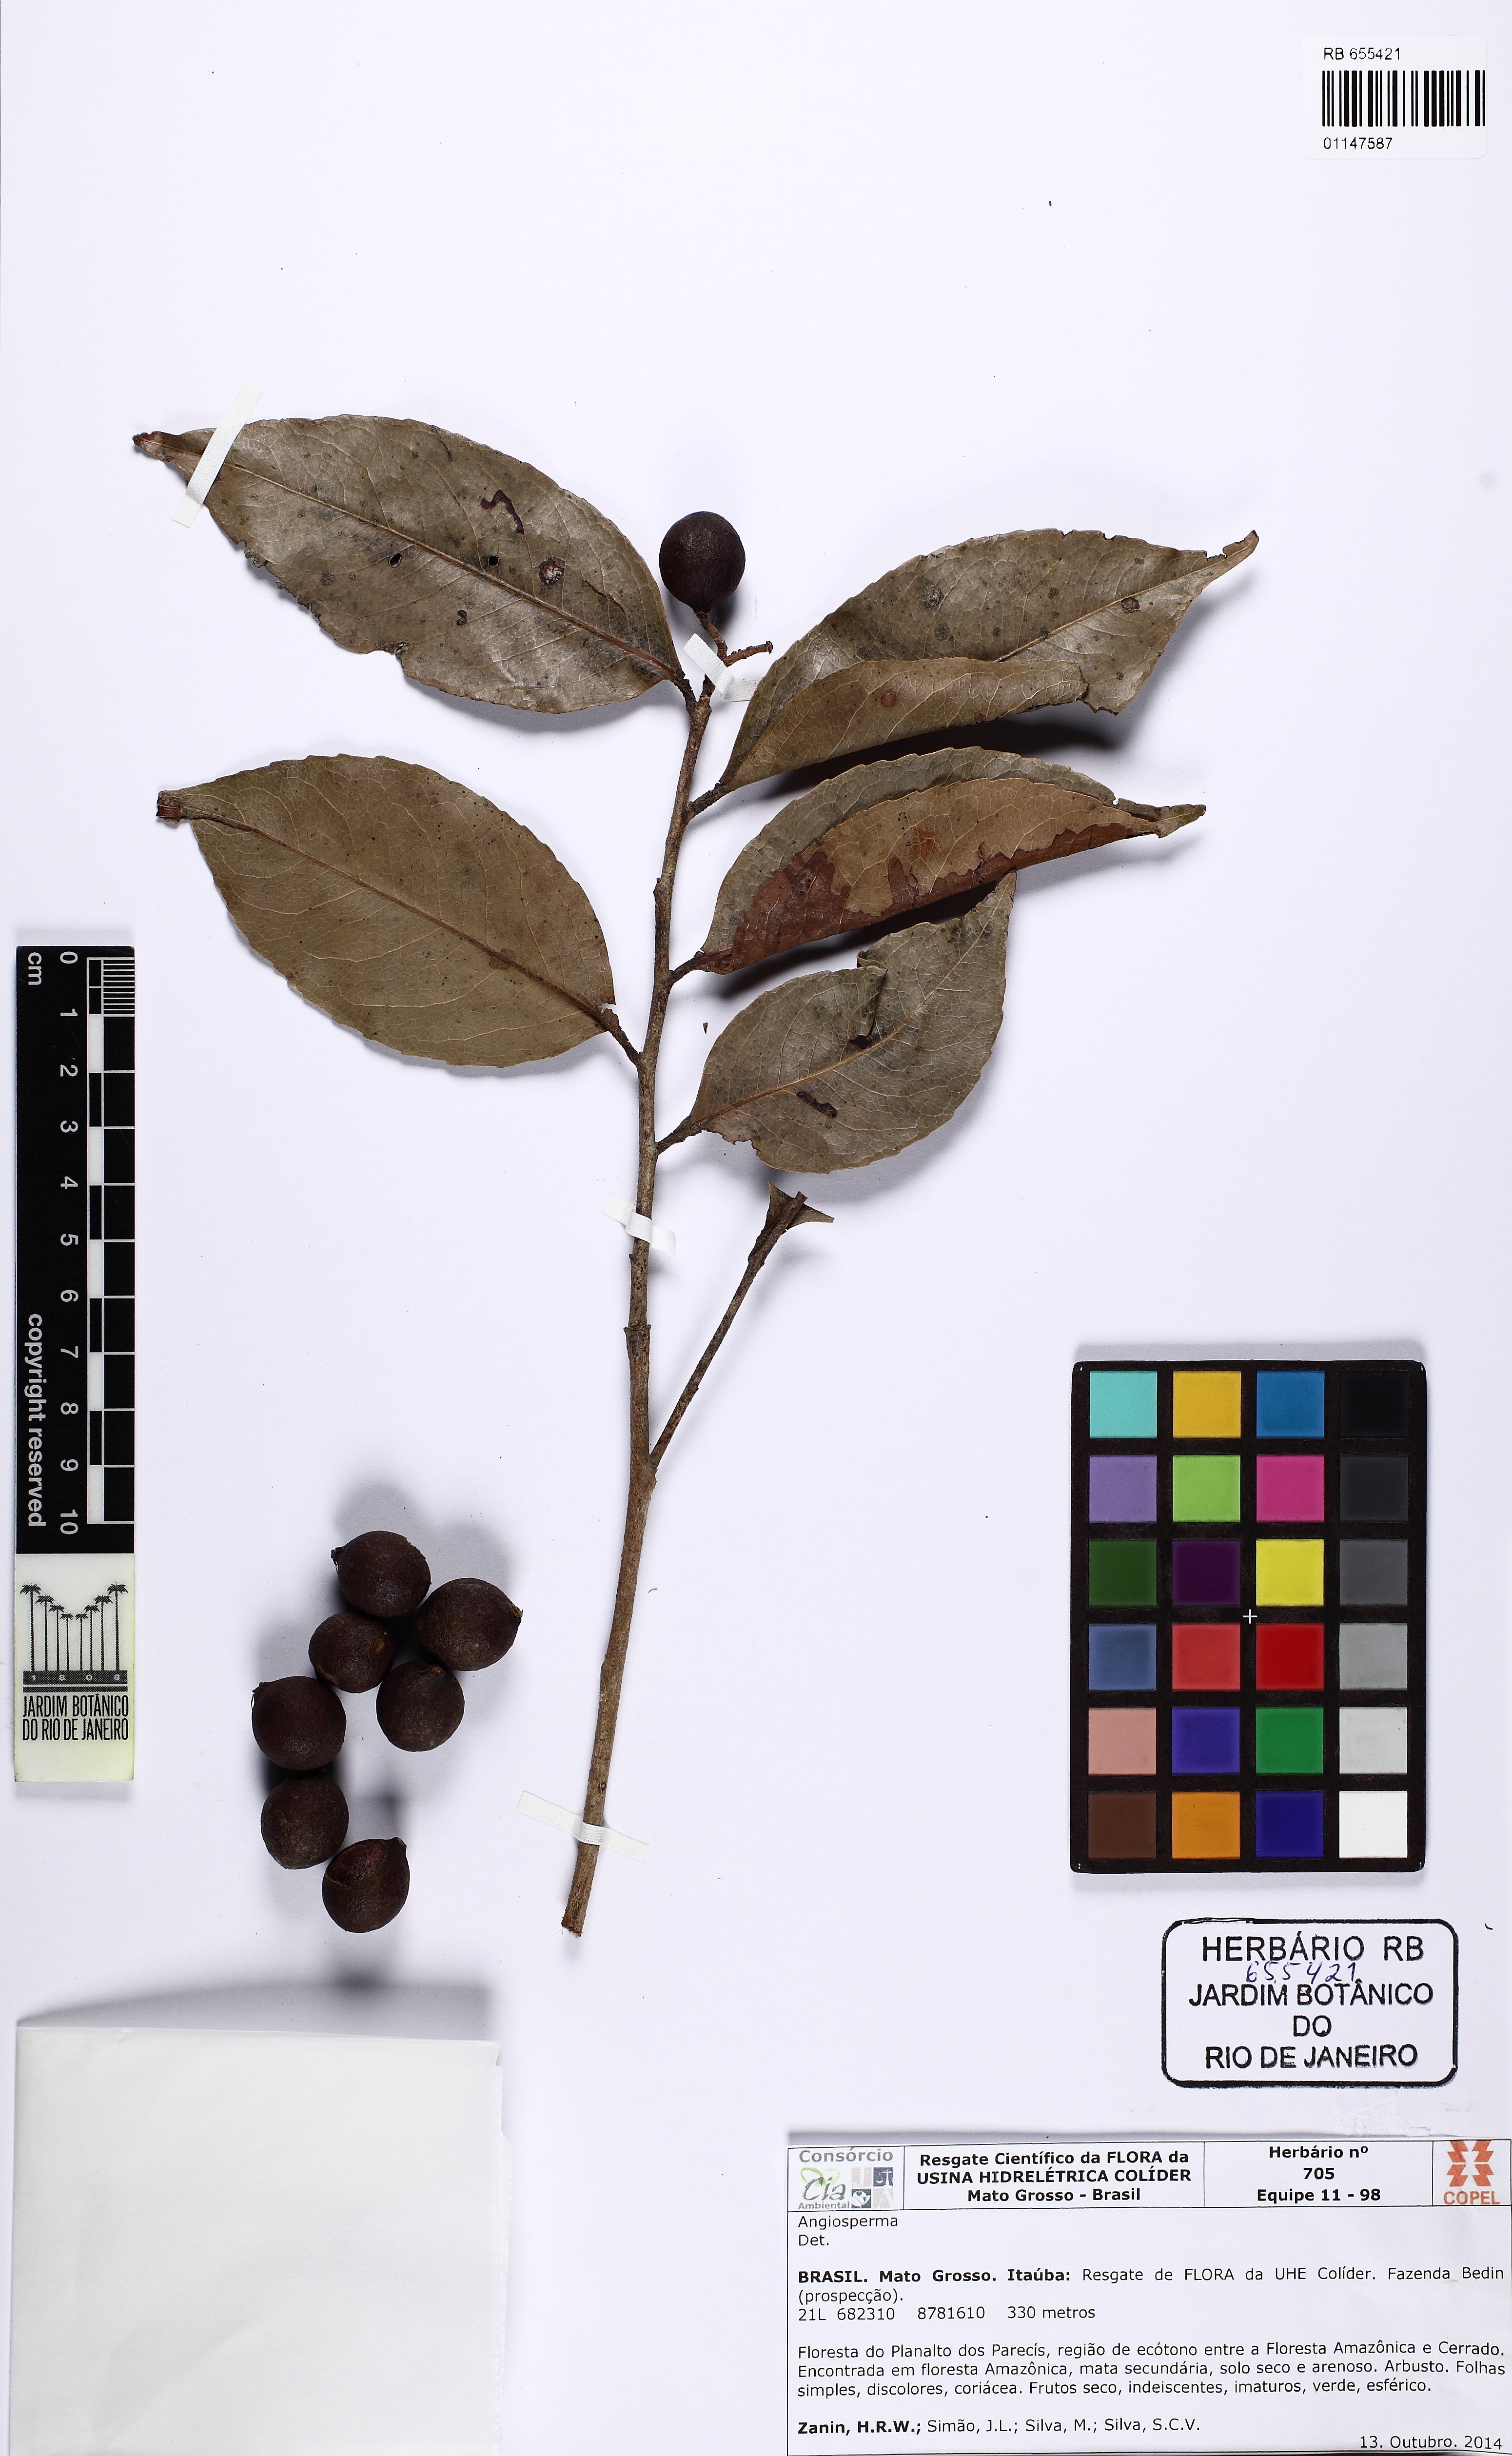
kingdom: Plantae
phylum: Tracheophyta
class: Magnoliopsida
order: Malpighiales
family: Humiriaceae
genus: Sacoglottis
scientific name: Sacoglottis mattogrossensis
